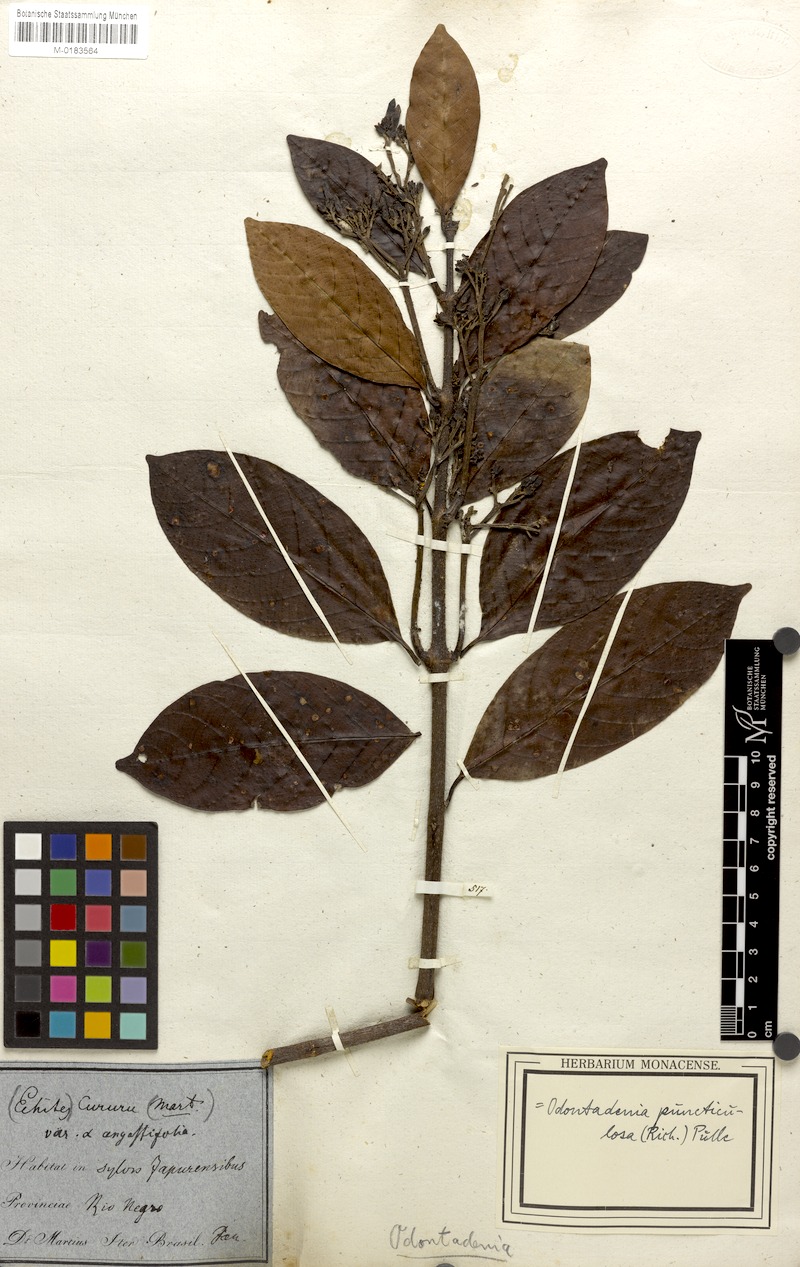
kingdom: Plantae
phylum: Tracheophyta
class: Magnoliopsida
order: Gentianales
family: Apocynaceae
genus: Odontadenia
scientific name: Odontadenia puncticulosa
